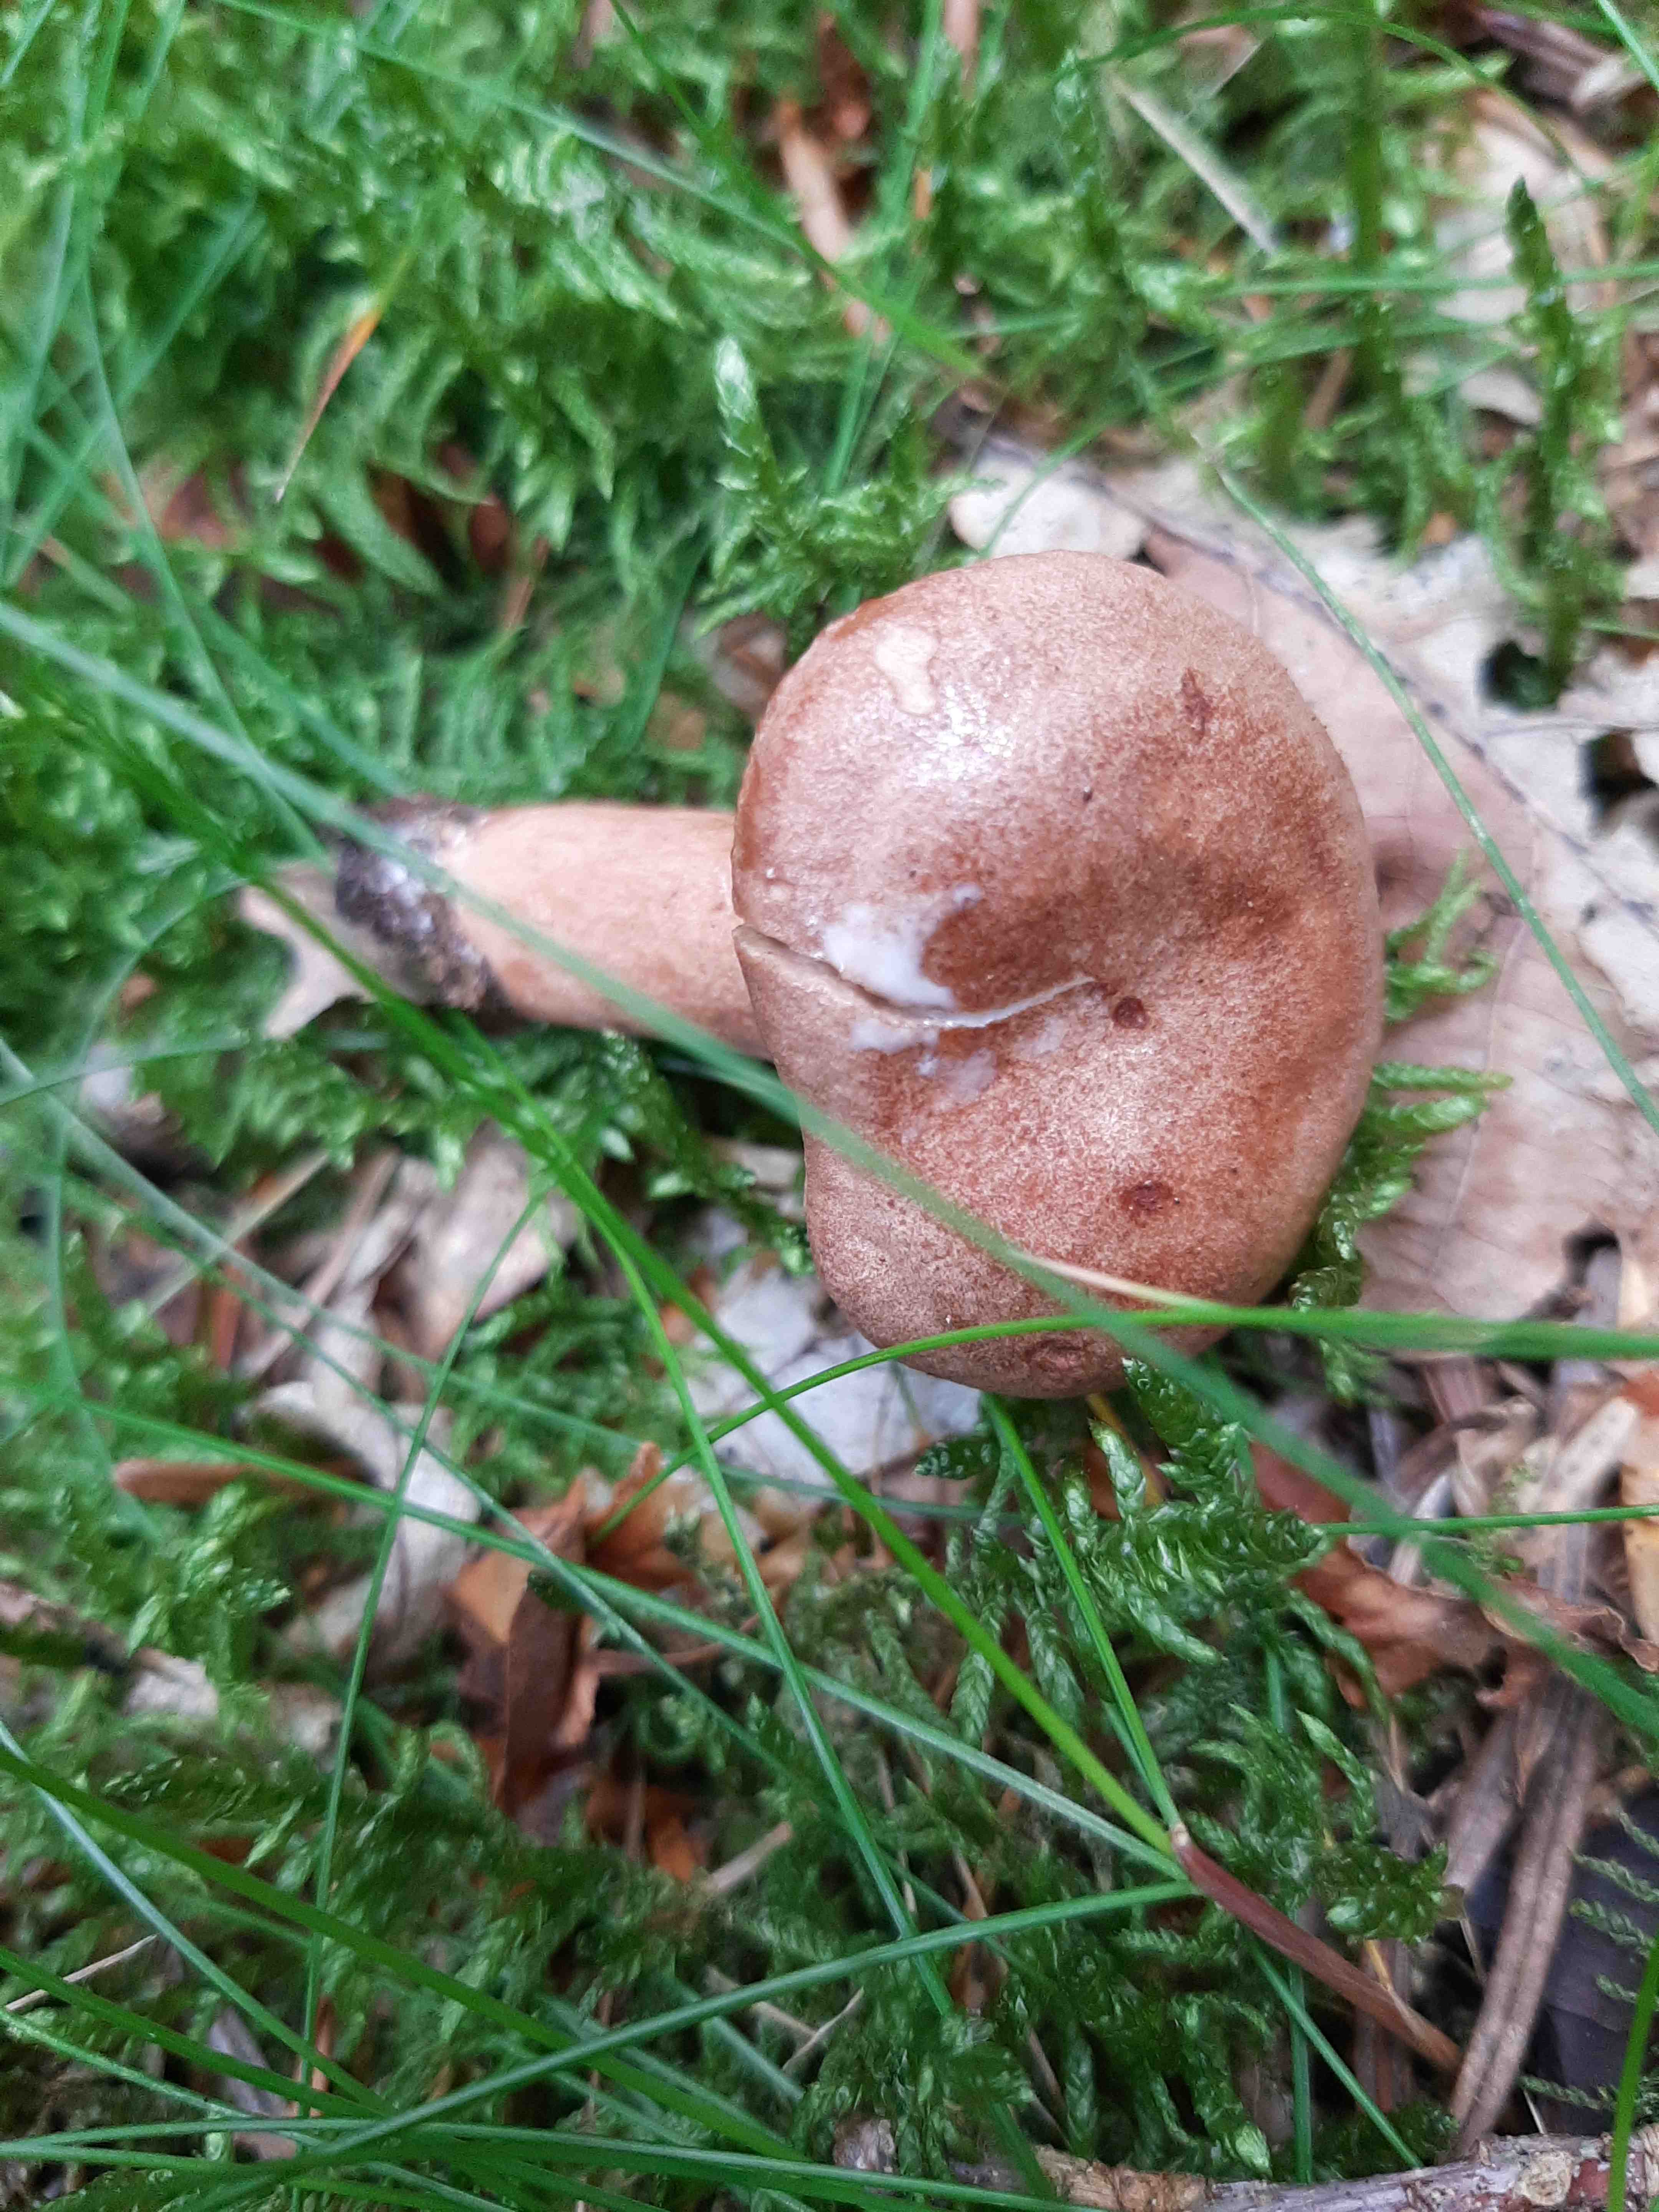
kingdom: Fungi
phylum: Basidiomycota
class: Agaricomycetes
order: Russulales
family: Russulaceae
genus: Lactarius
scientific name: Lactarius quietus
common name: ege-mælkehat
